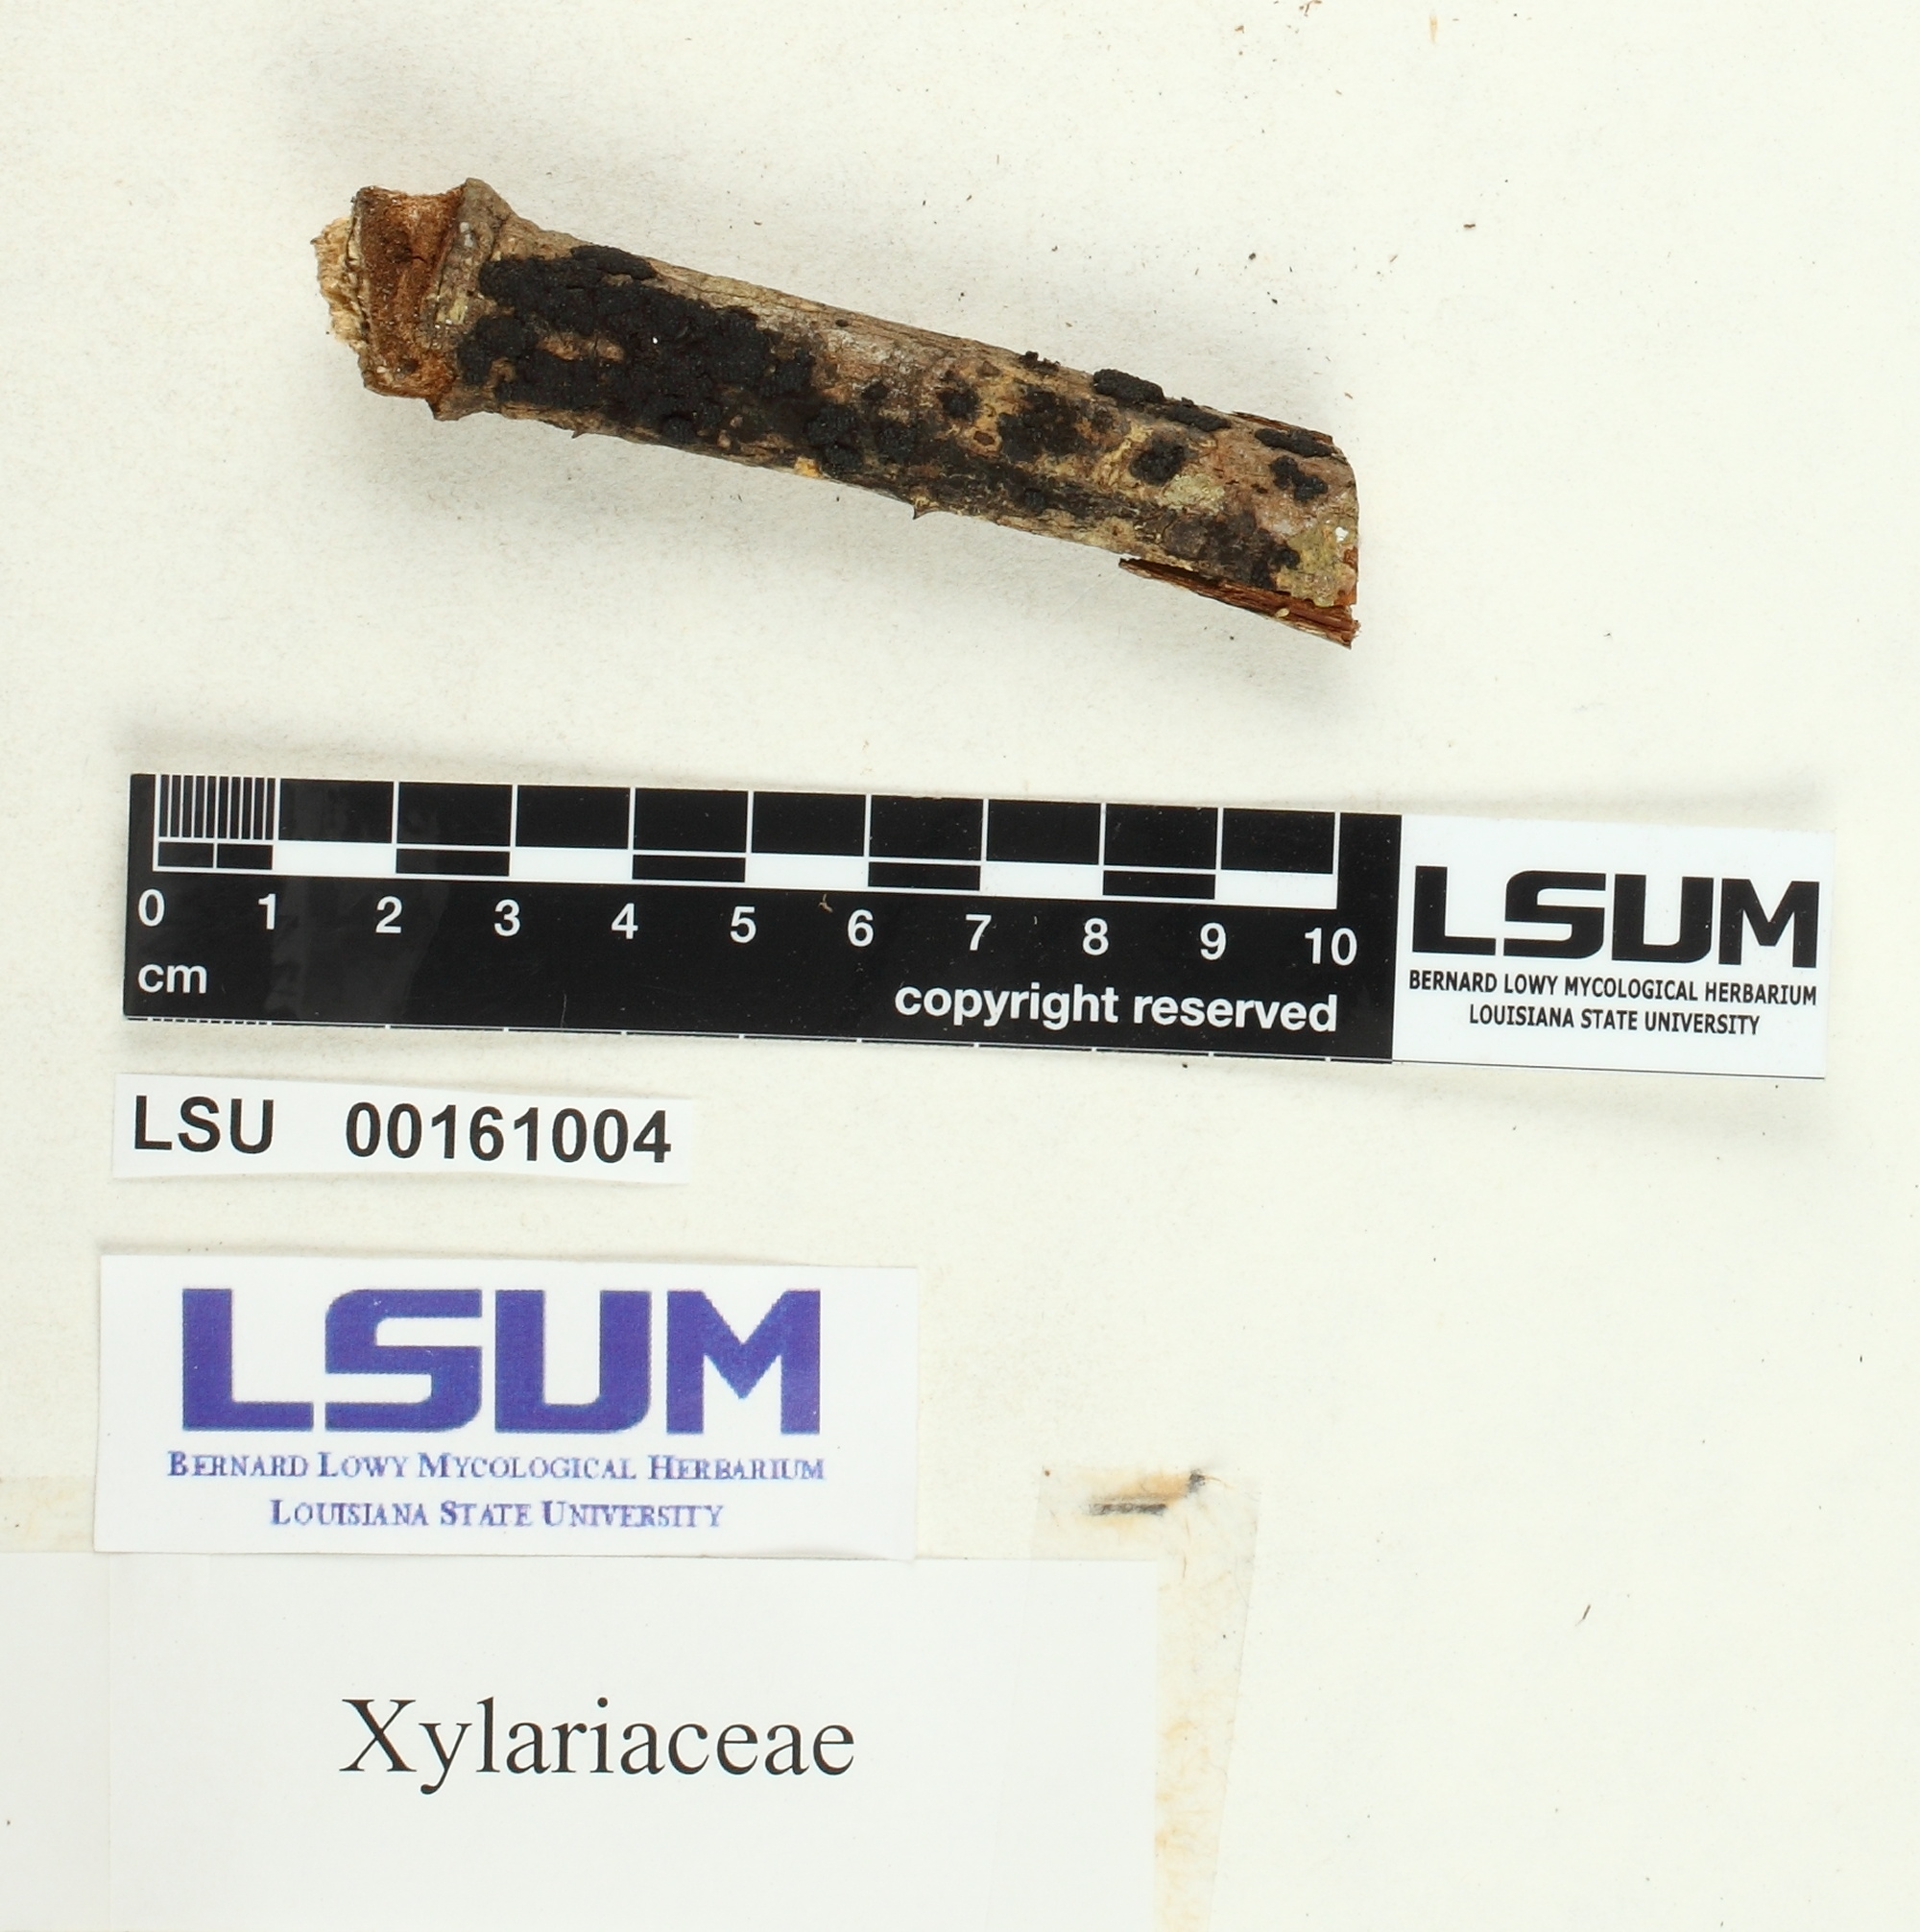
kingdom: Fungi
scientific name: Fungi
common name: Fungi
